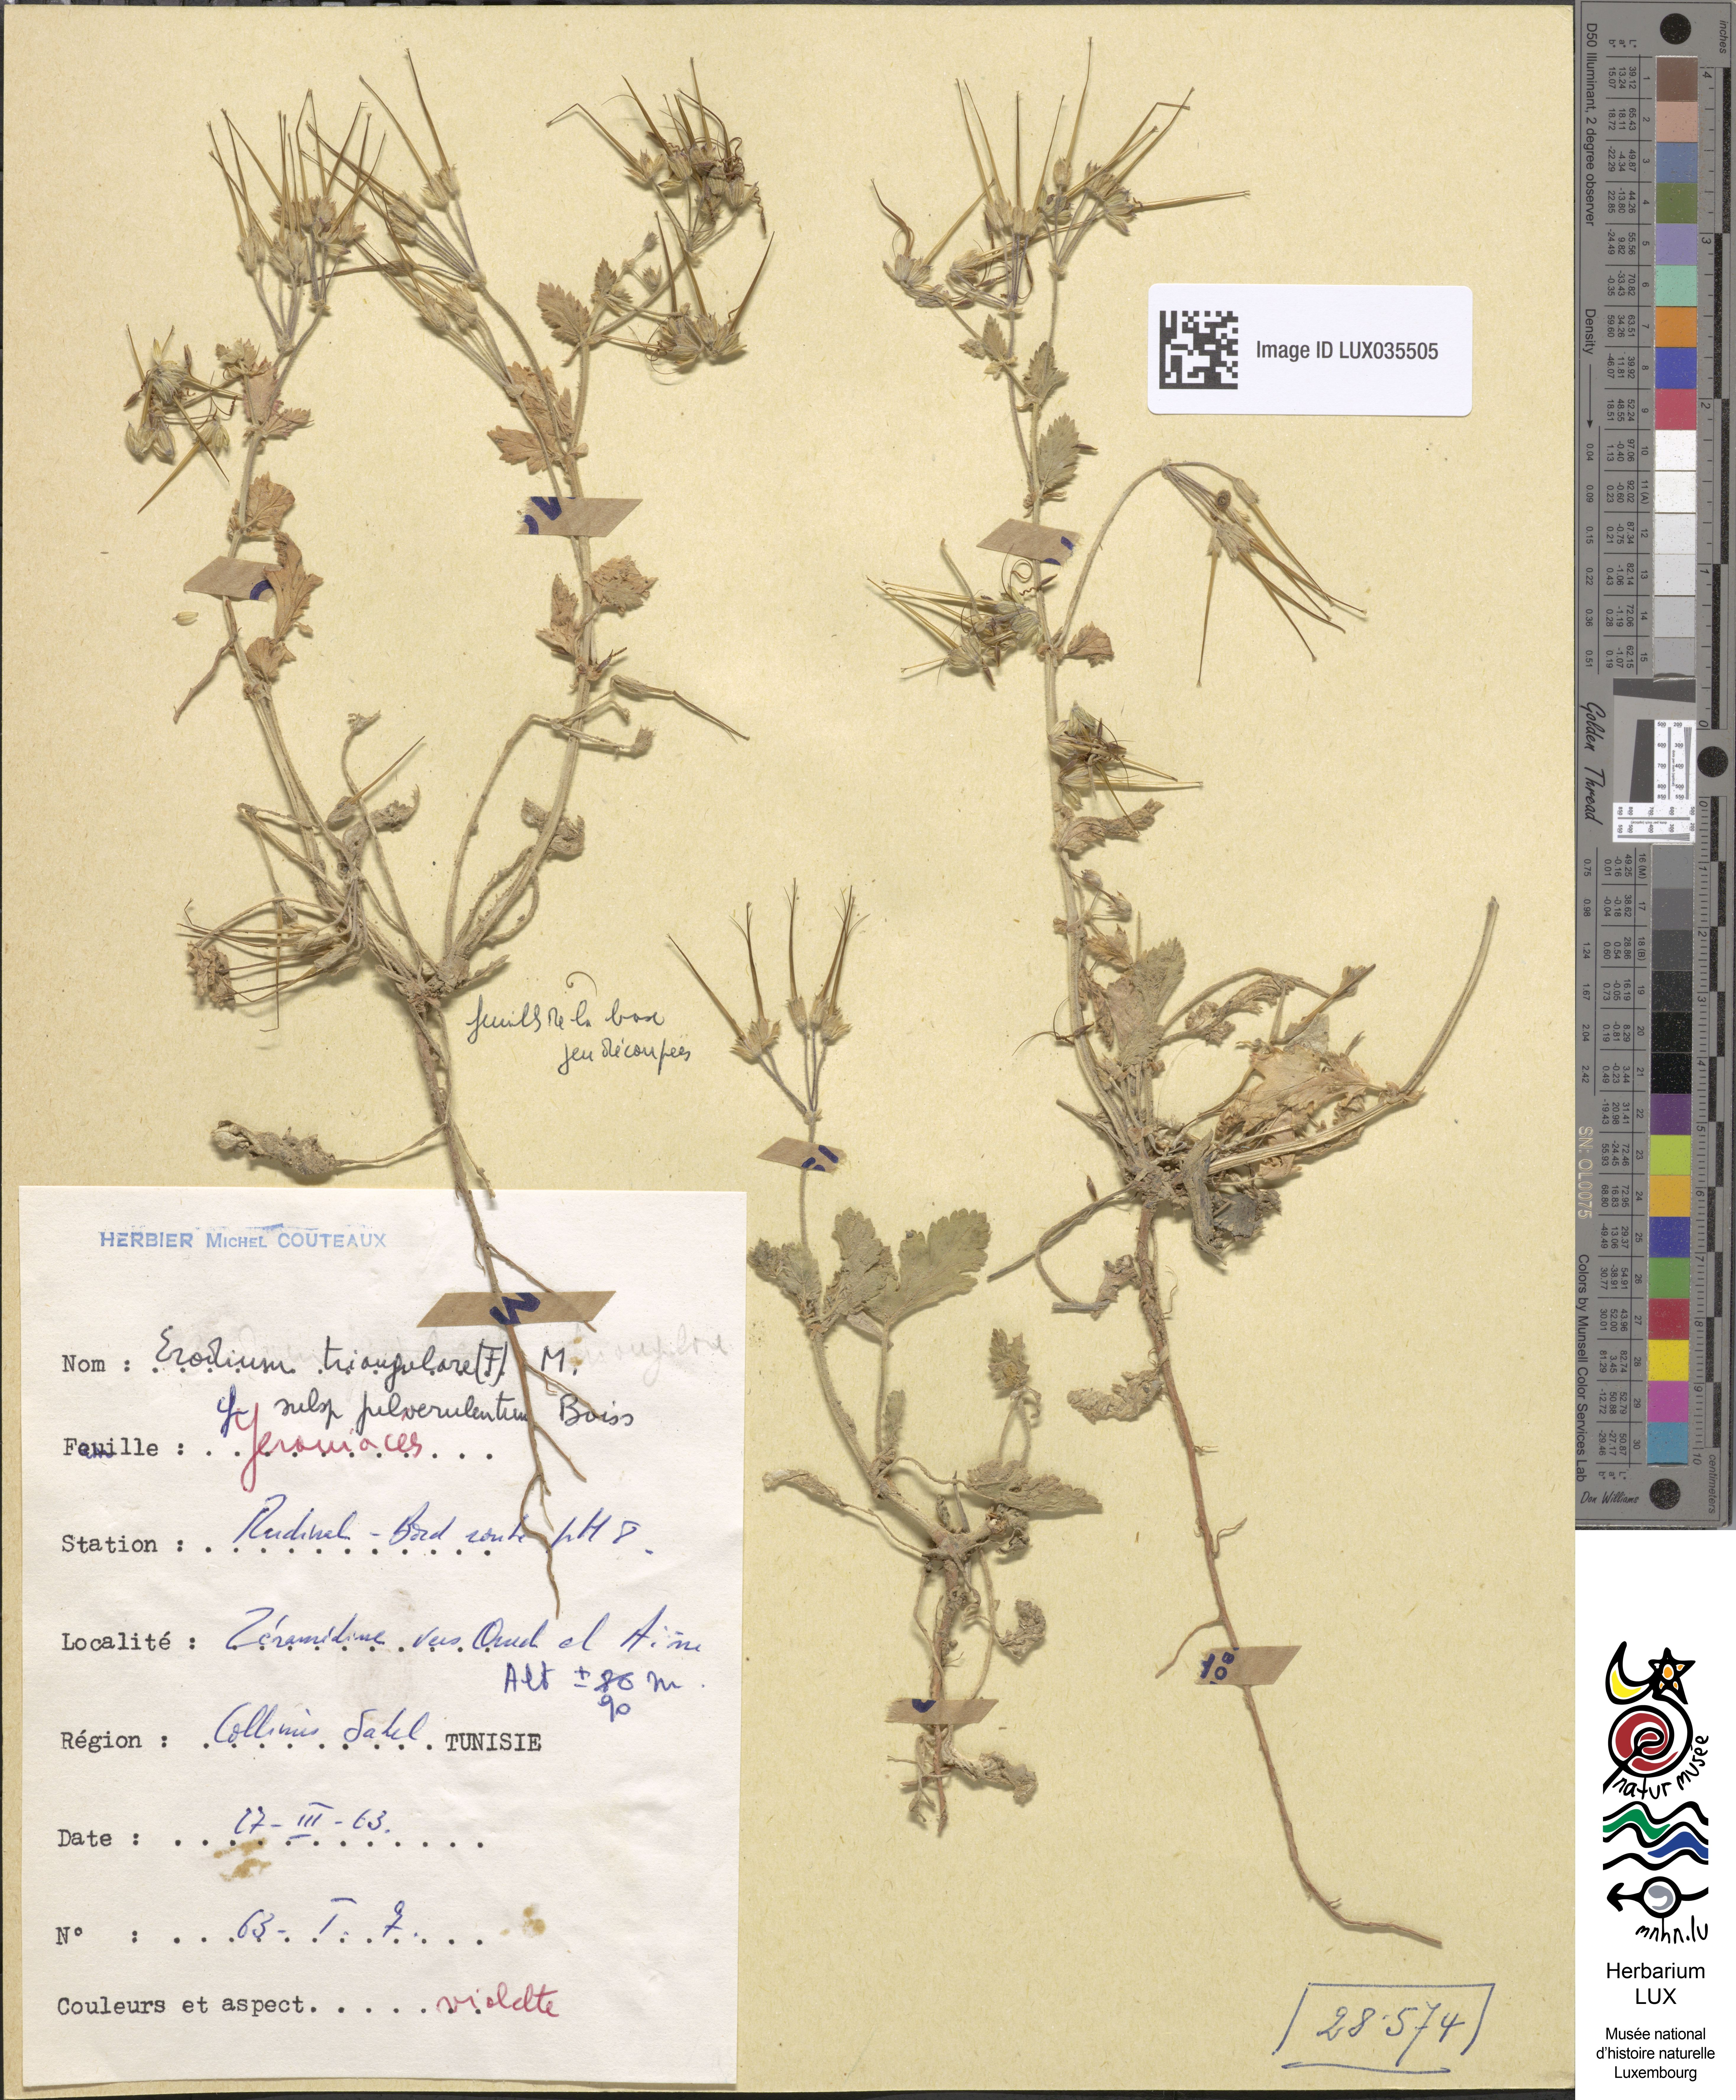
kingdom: Plantae
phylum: Tracheophyta
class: Magnoliopsida
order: Geraniales
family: Geraniaceae
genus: Erodium
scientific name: Erodium laciniatum
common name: Cutleaf stork's bill
